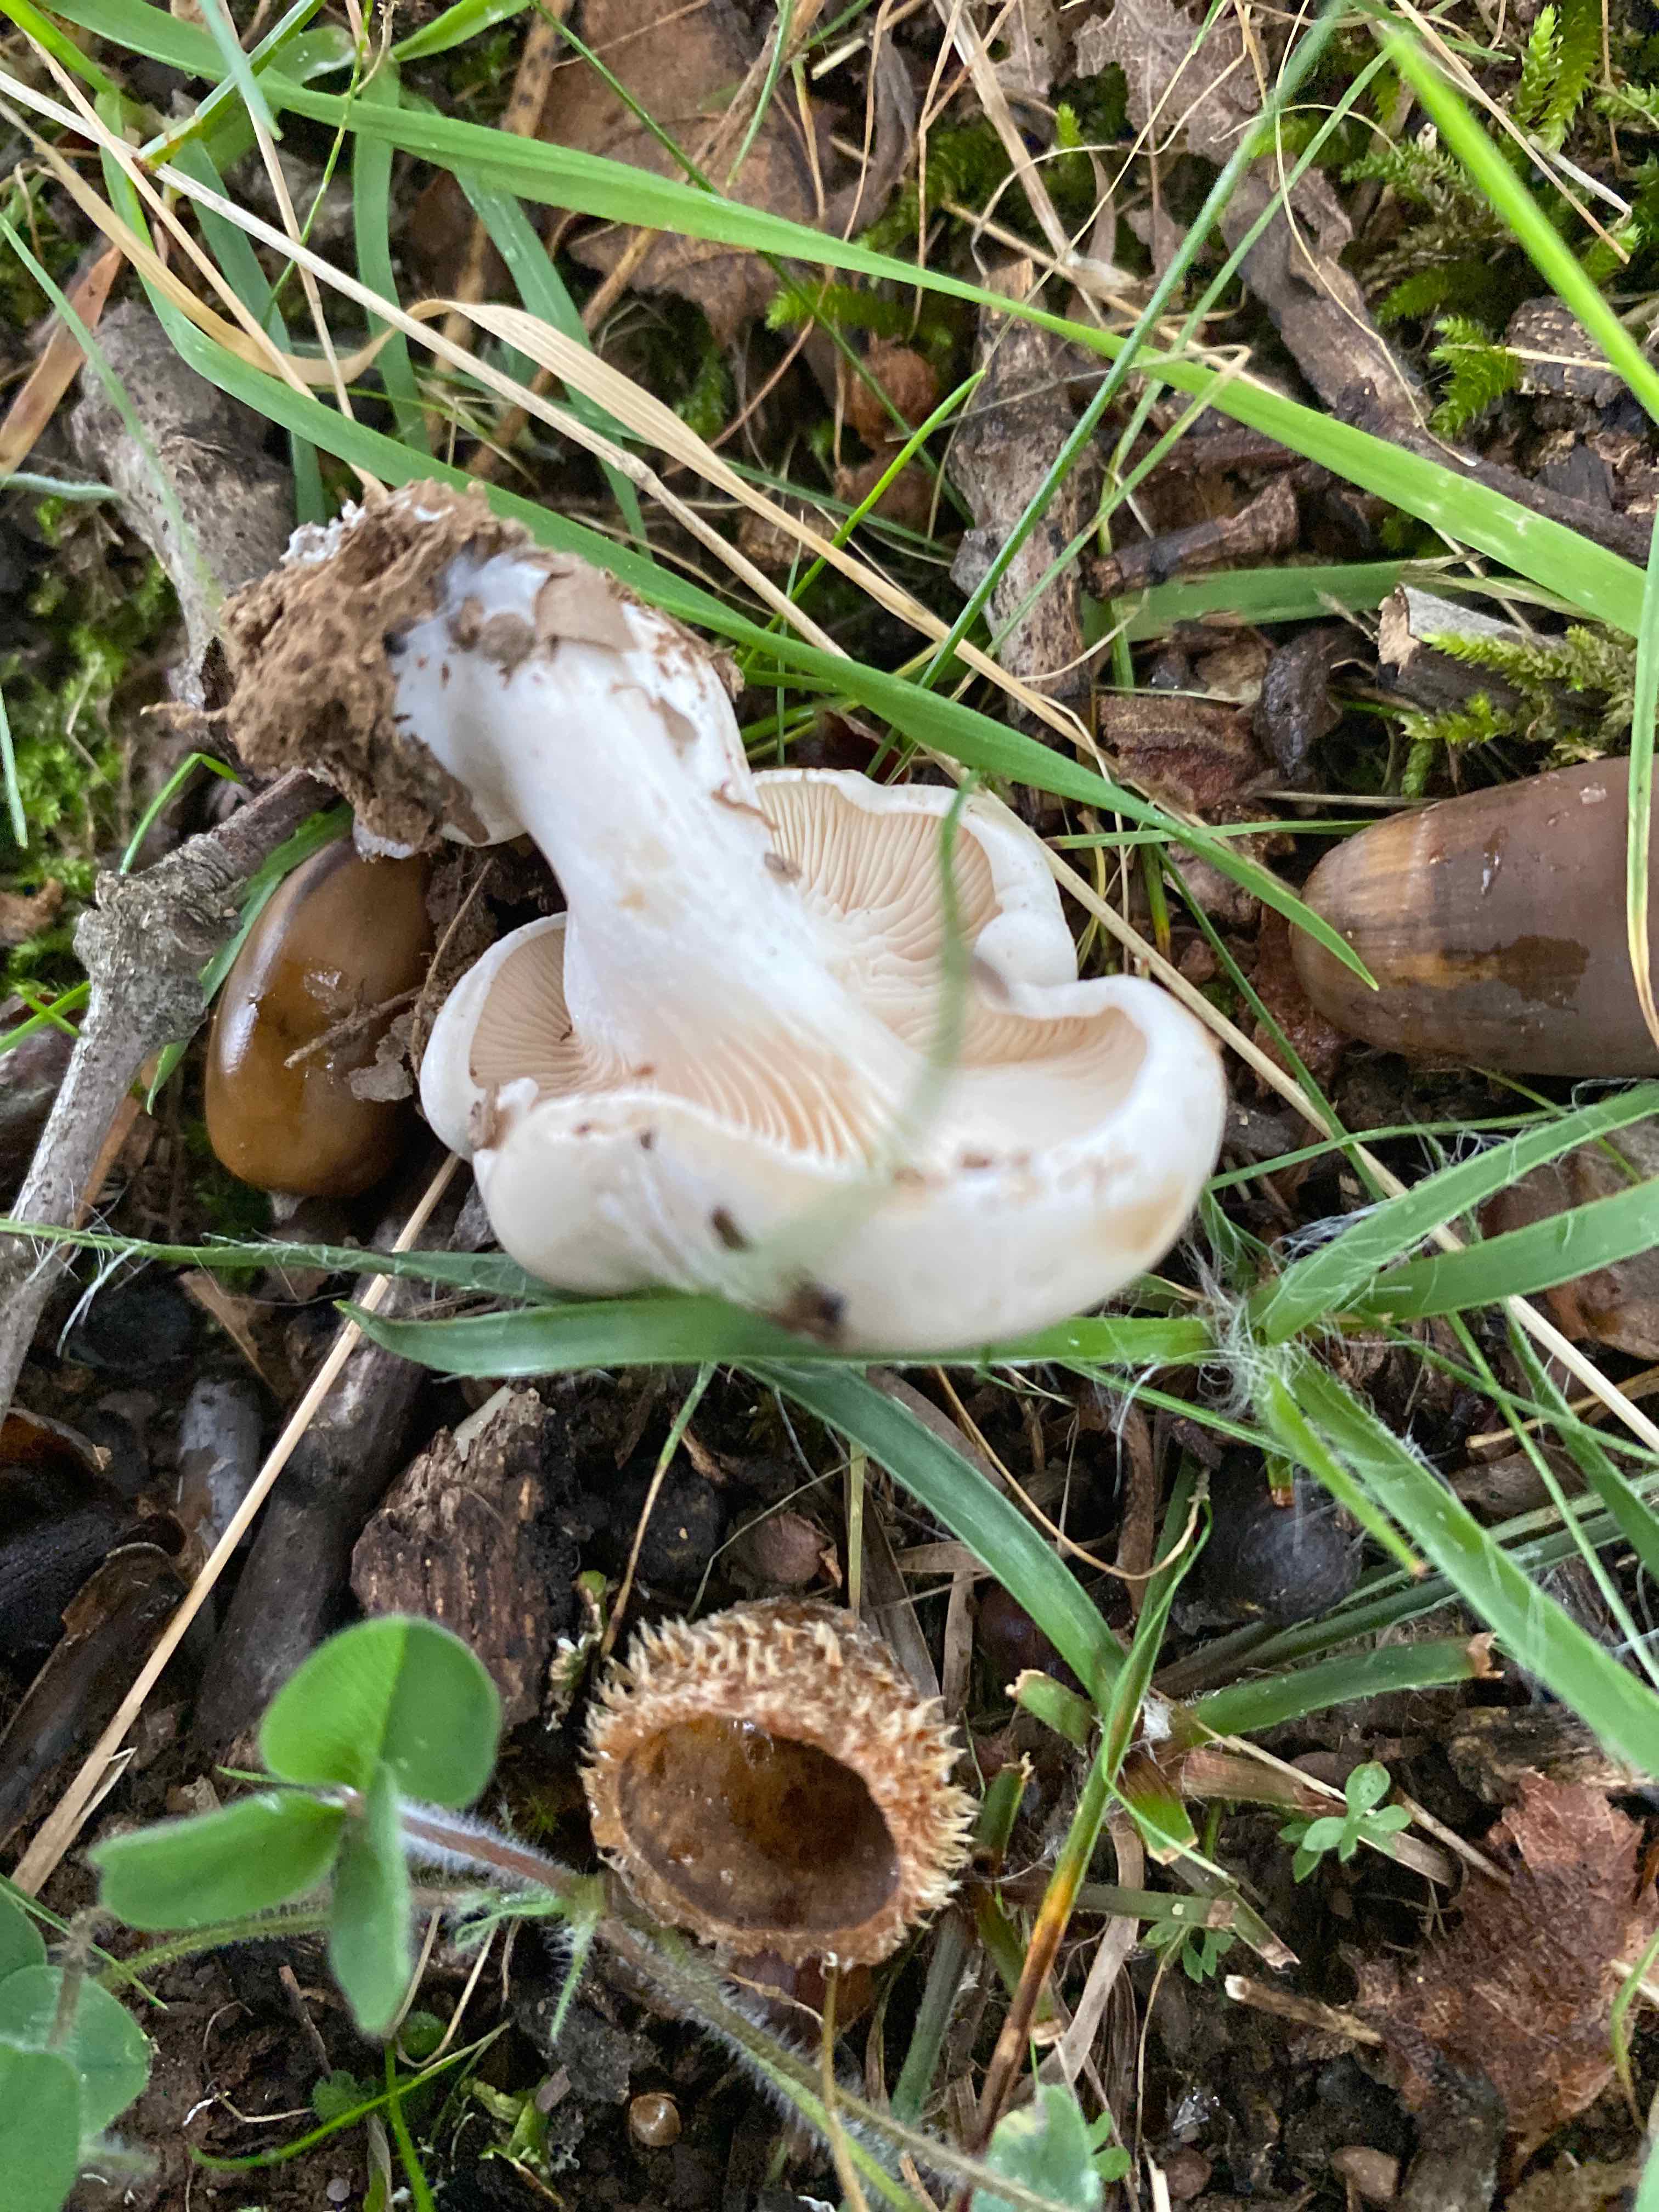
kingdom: Fungi
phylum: Basidiomycota
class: Agaricomycetes
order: Agaricales
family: Entolomataceae
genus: Clitopilus
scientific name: Clitopilus prunulus
